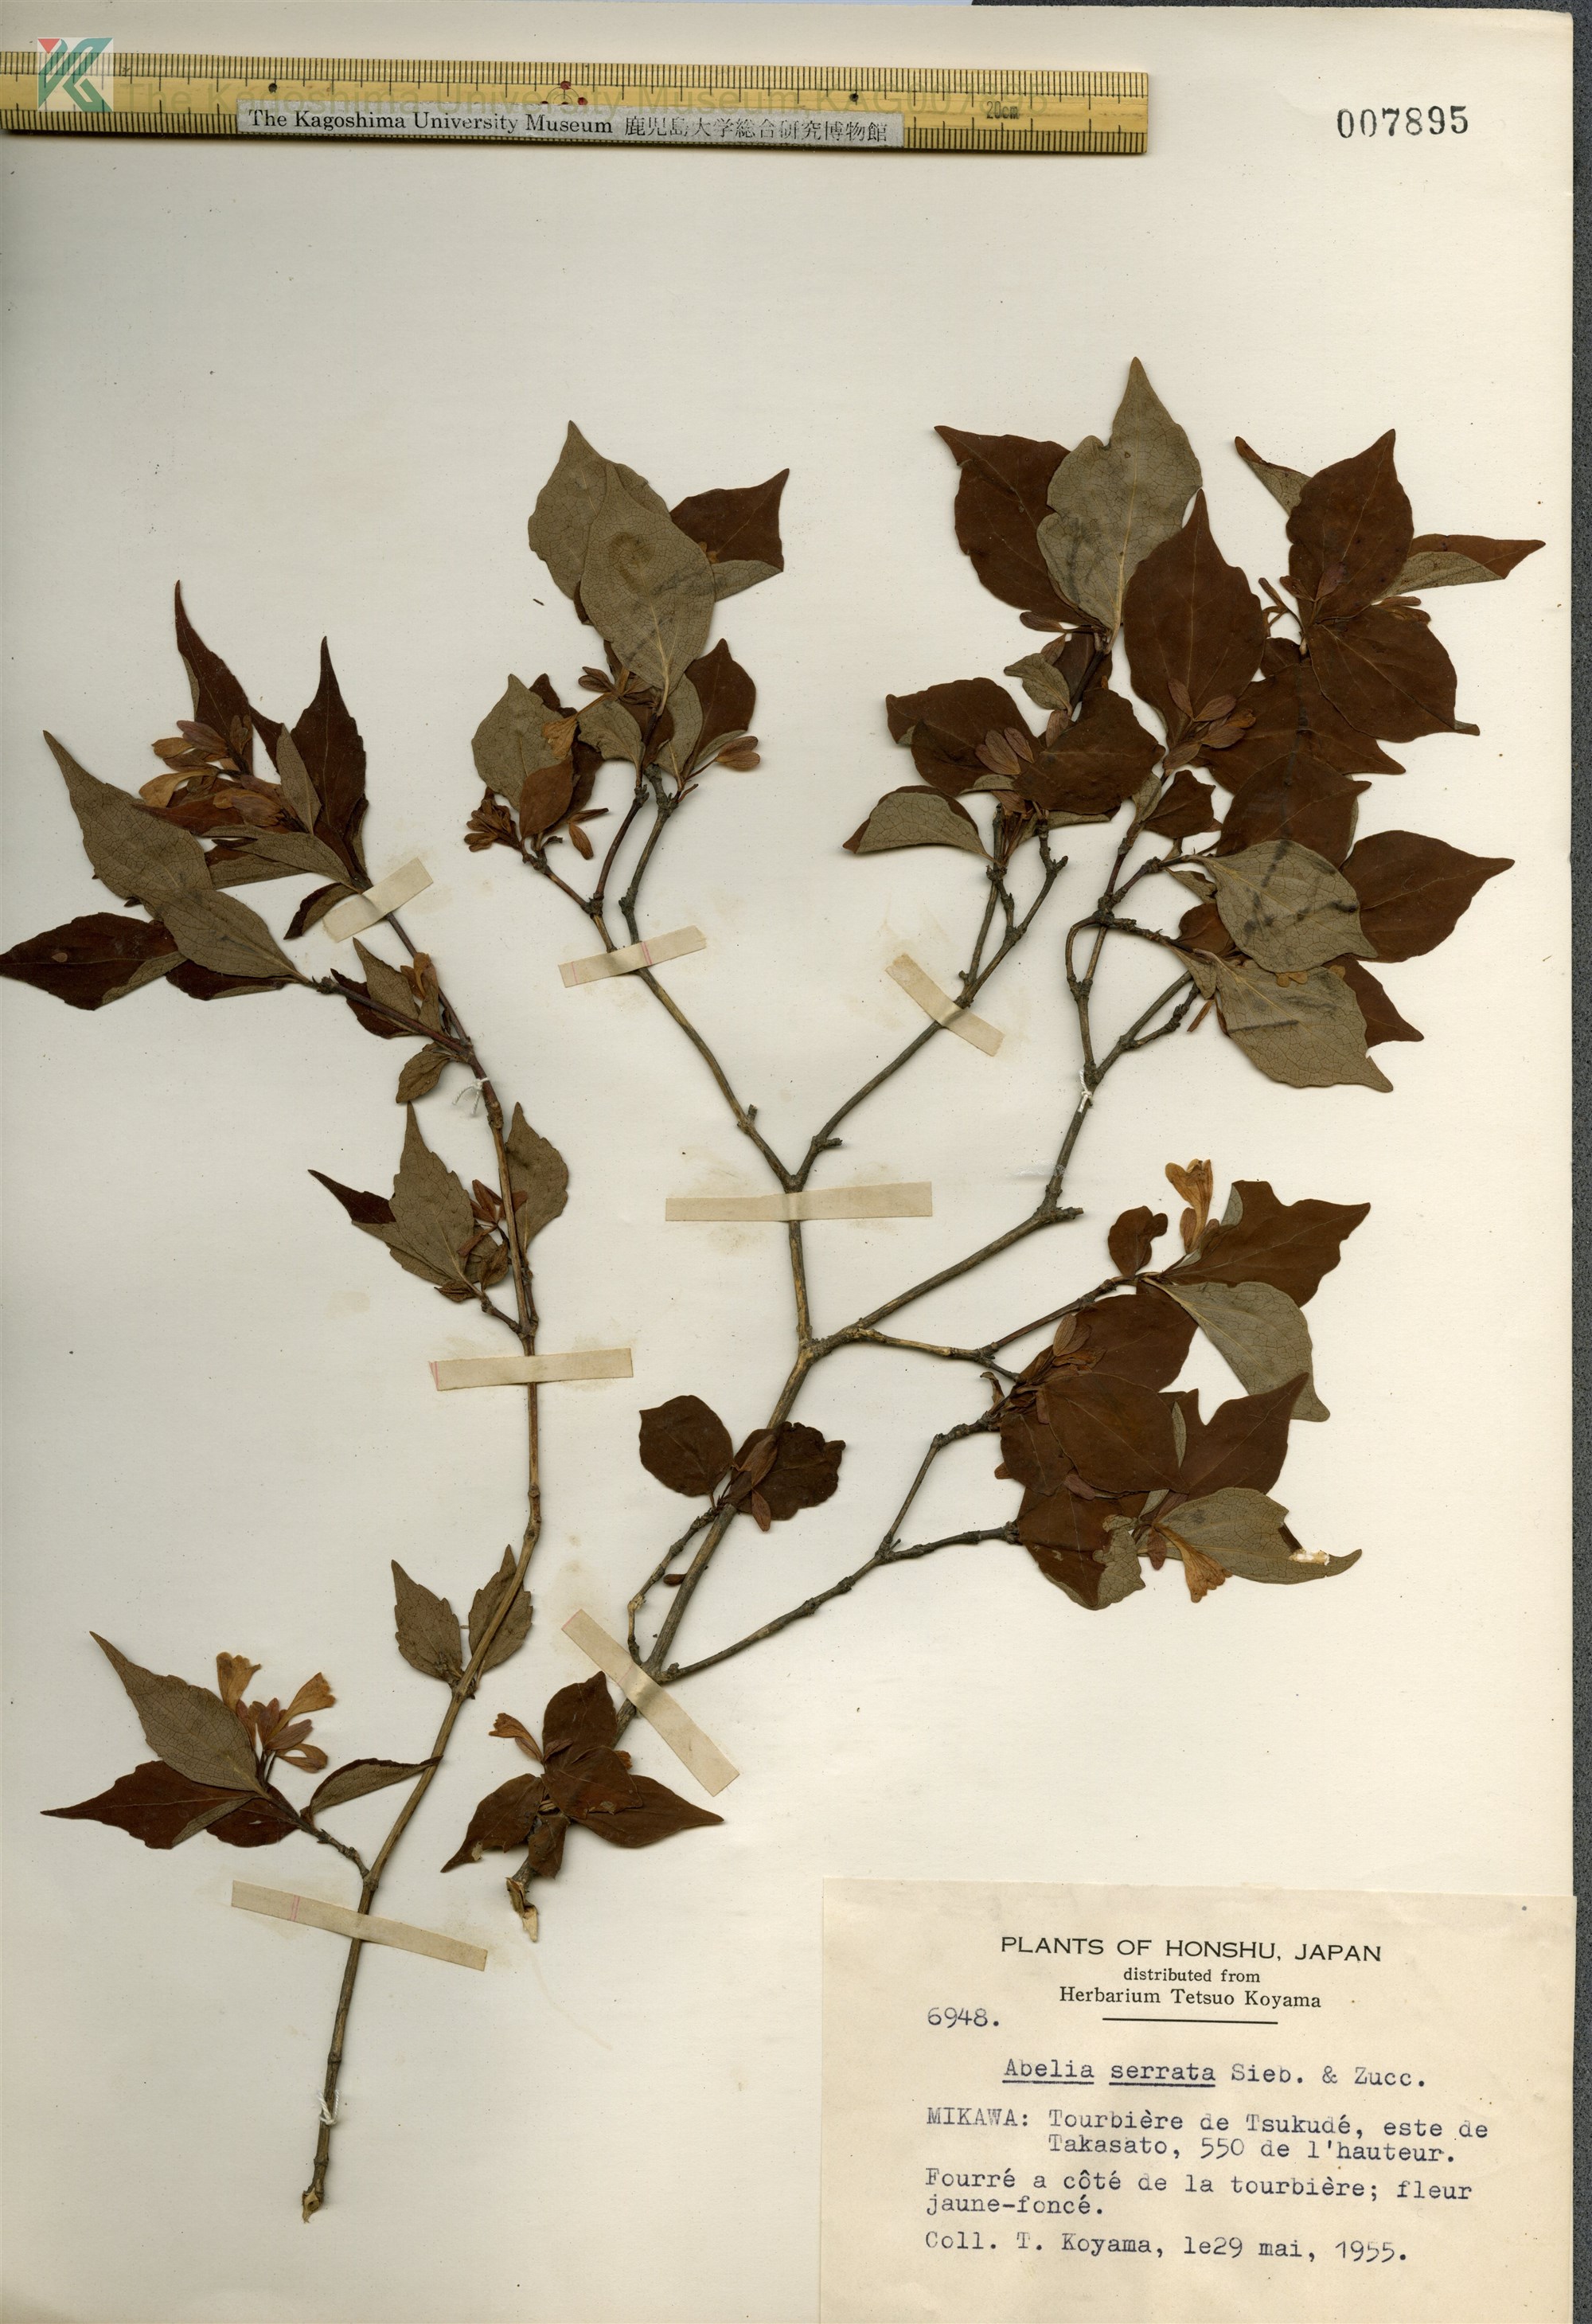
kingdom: Plantae
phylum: Tracheophyta
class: Magnoliopsida
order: Dipsacales
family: Caprifoliaceae
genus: Diabelia
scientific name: Diabelia serrata
